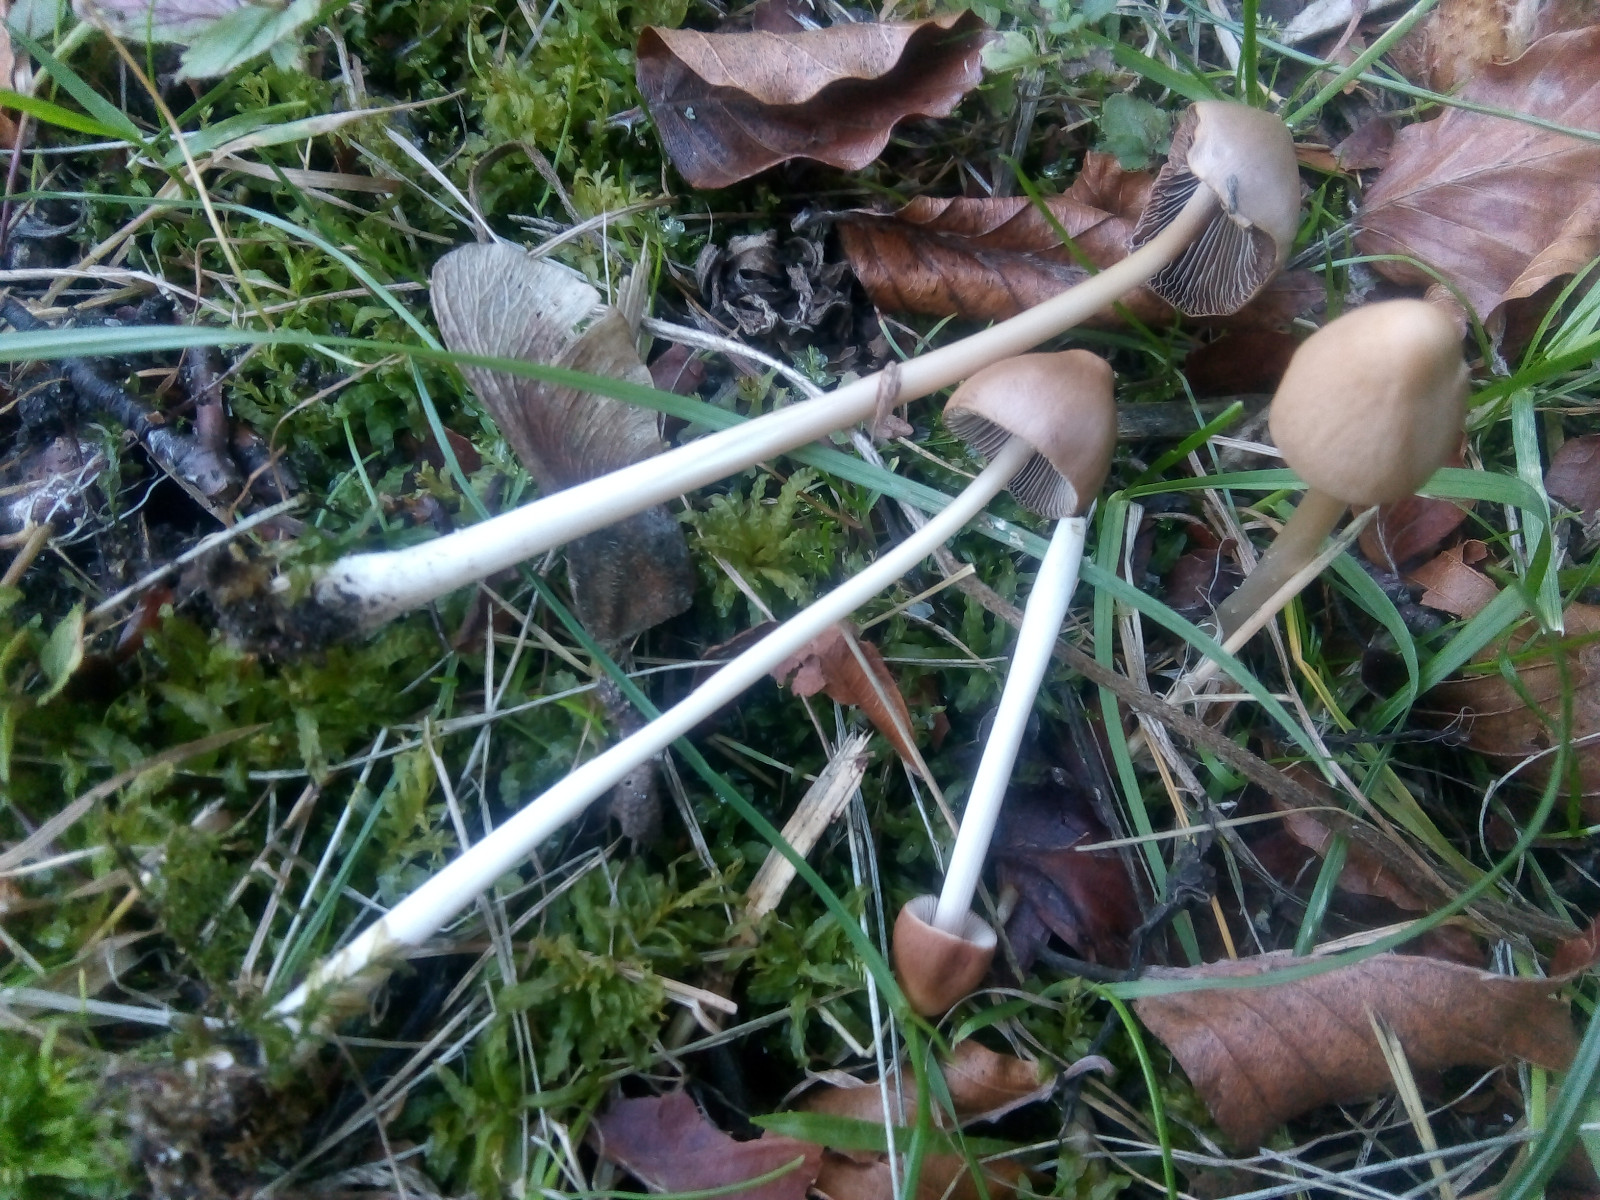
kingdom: Fungi
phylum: Basidiomycota
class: Agaricomycetes
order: Agaricales
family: Psathyrellaceae
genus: Parasola
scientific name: Parasola conopilea
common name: kegle-hjulhat
